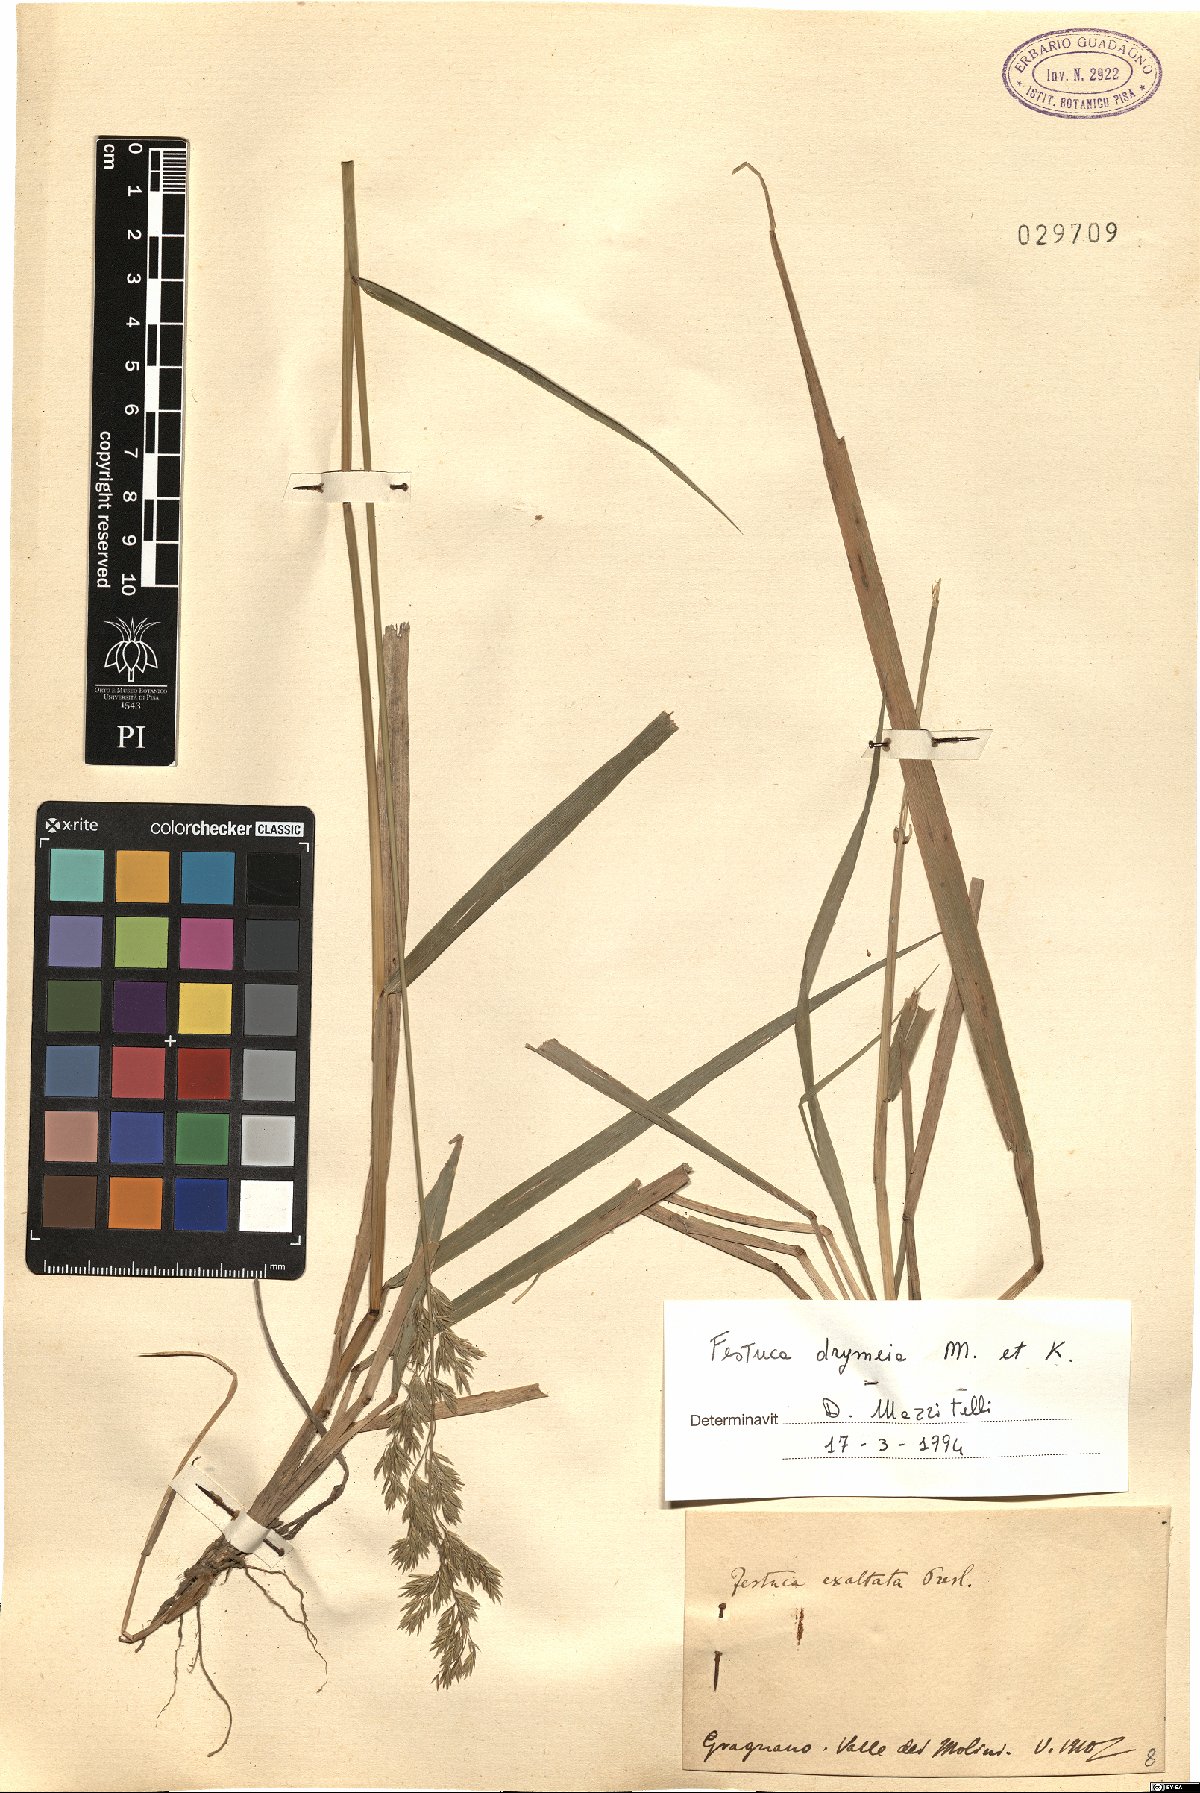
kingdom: Plantae
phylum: Tracheophyta
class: Liliopsida
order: Poales
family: Poaceae
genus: Festuca
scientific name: Festuca drymeja
